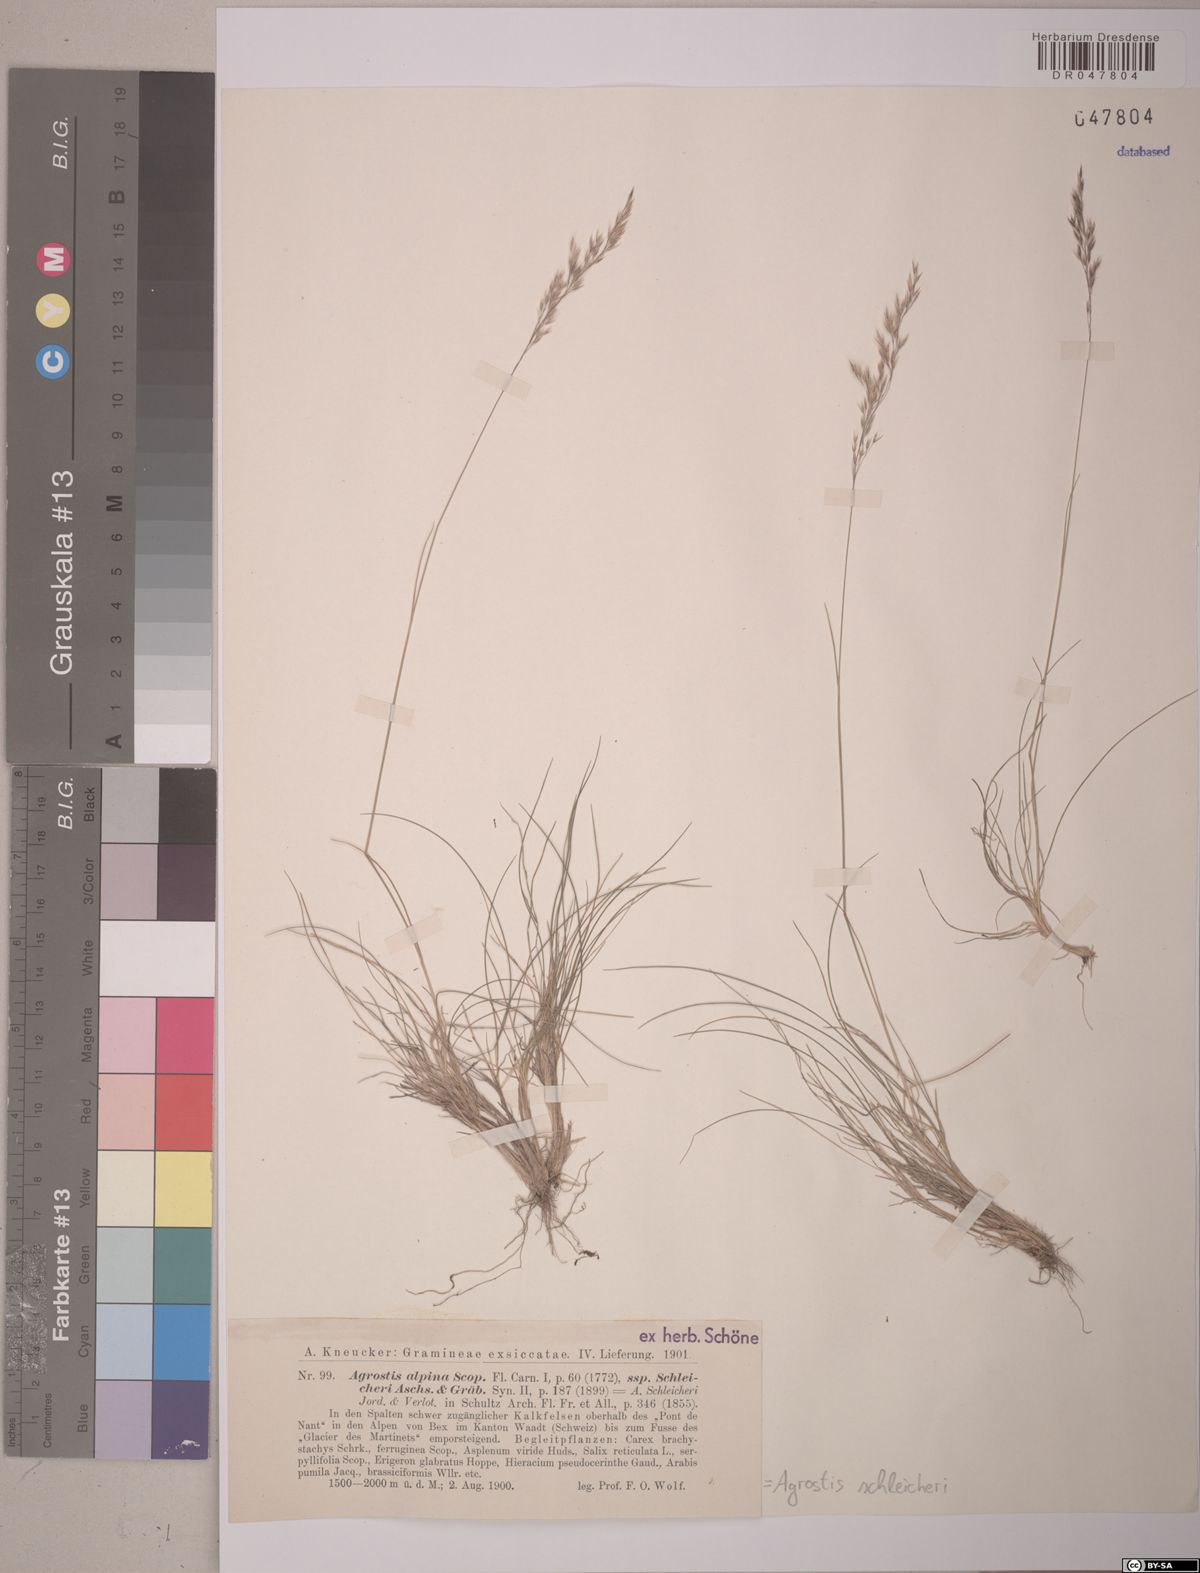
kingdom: Plantae
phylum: Tracheophyta
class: Liliopsida
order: Poales
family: Poaceae
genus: Alpagrostis
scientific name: Alpagrostis schleicheri
